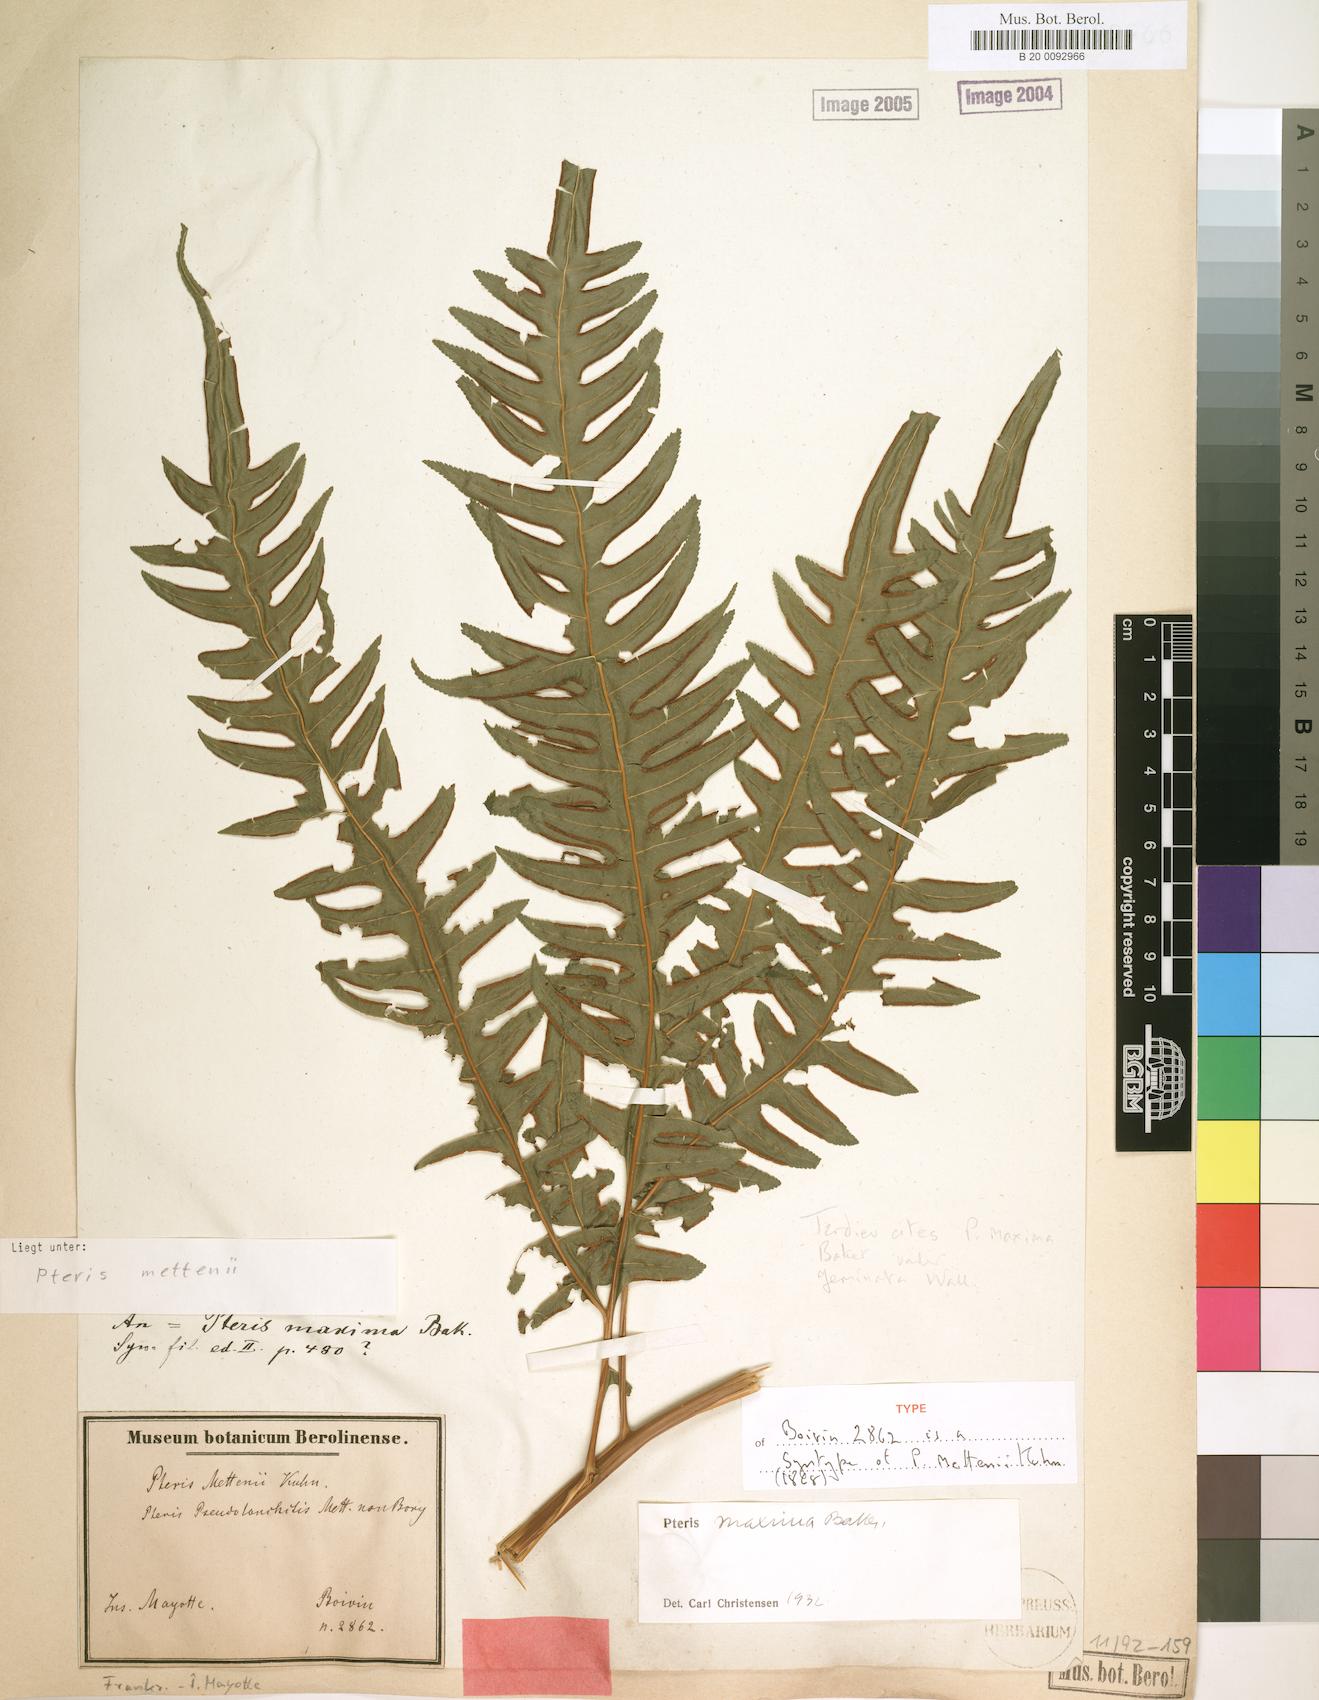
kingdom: Plantae
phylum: Tracheophyta
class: Polypodiopsida
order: Polypodiales
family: Pteridaceae
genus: Pteris
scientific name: Pteris mettenii
